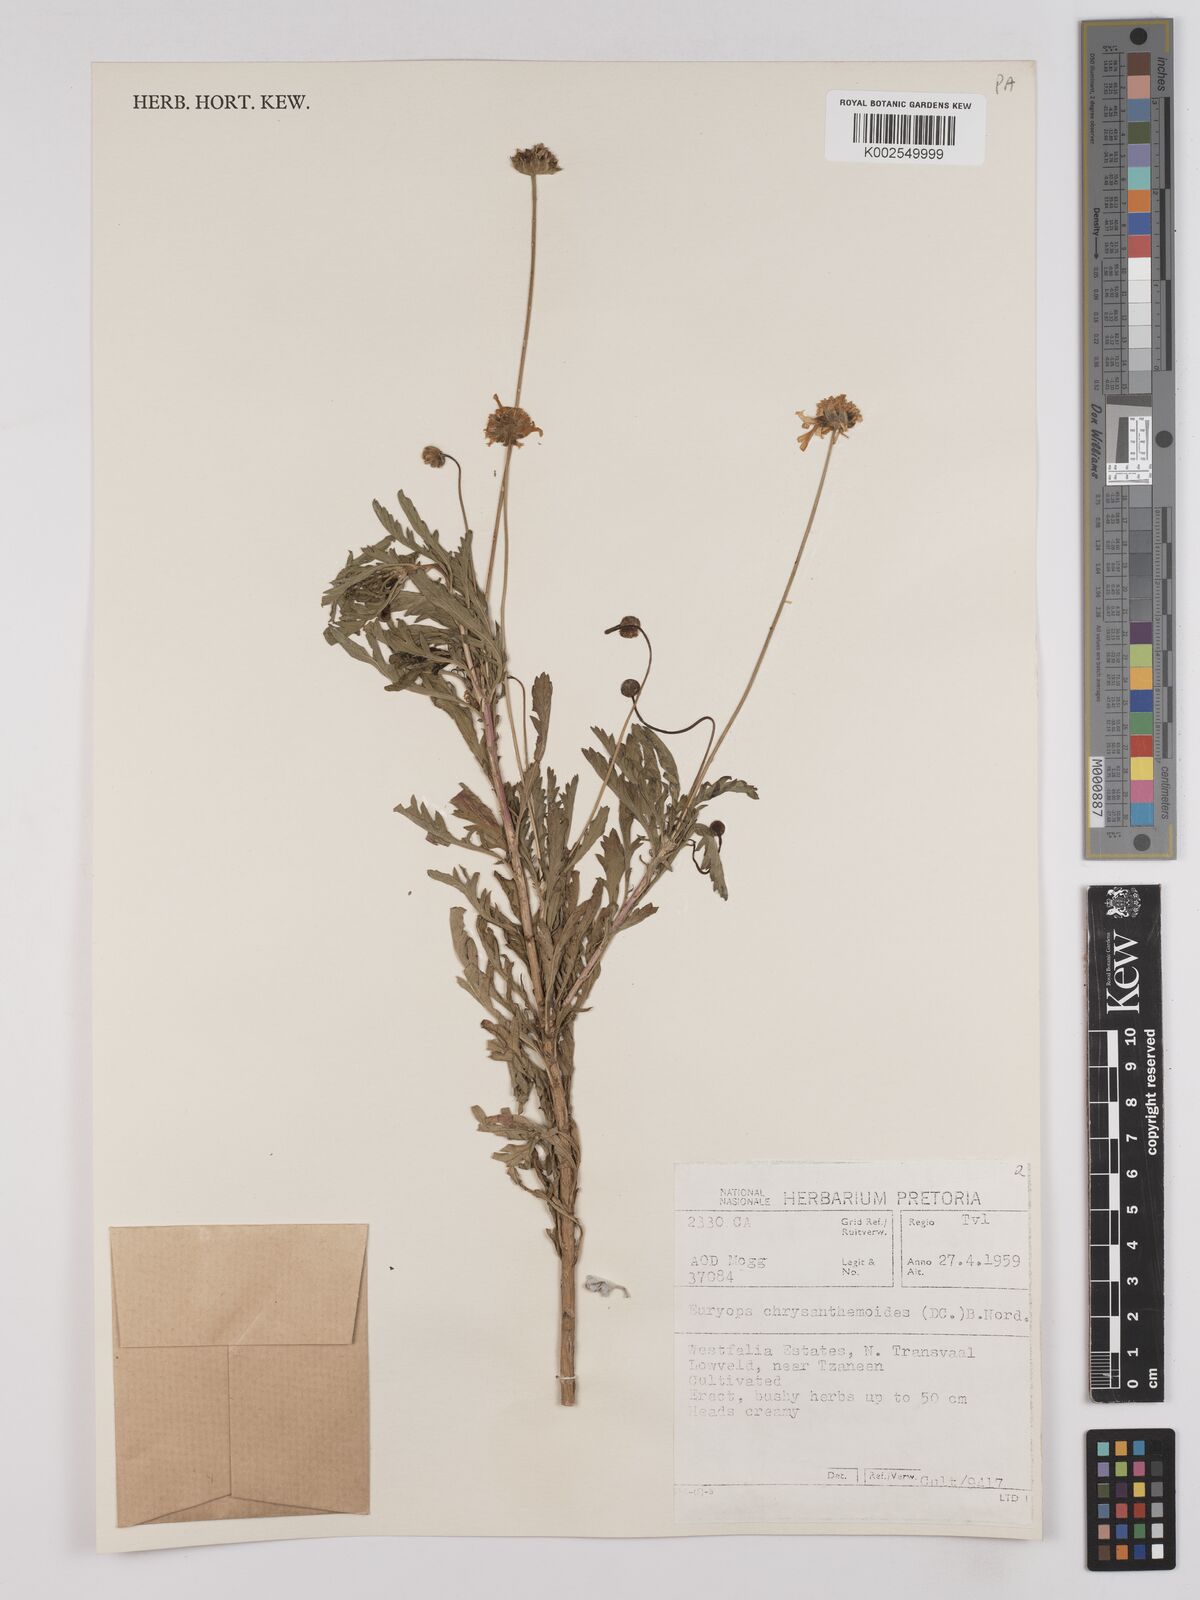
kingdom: Plantae
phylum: Tracheophyta
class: Magnoliopsida
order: Asterales
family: Asteraceae
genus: Euryops
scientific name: Euryops chrysanthemoides
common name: Bull's eye
